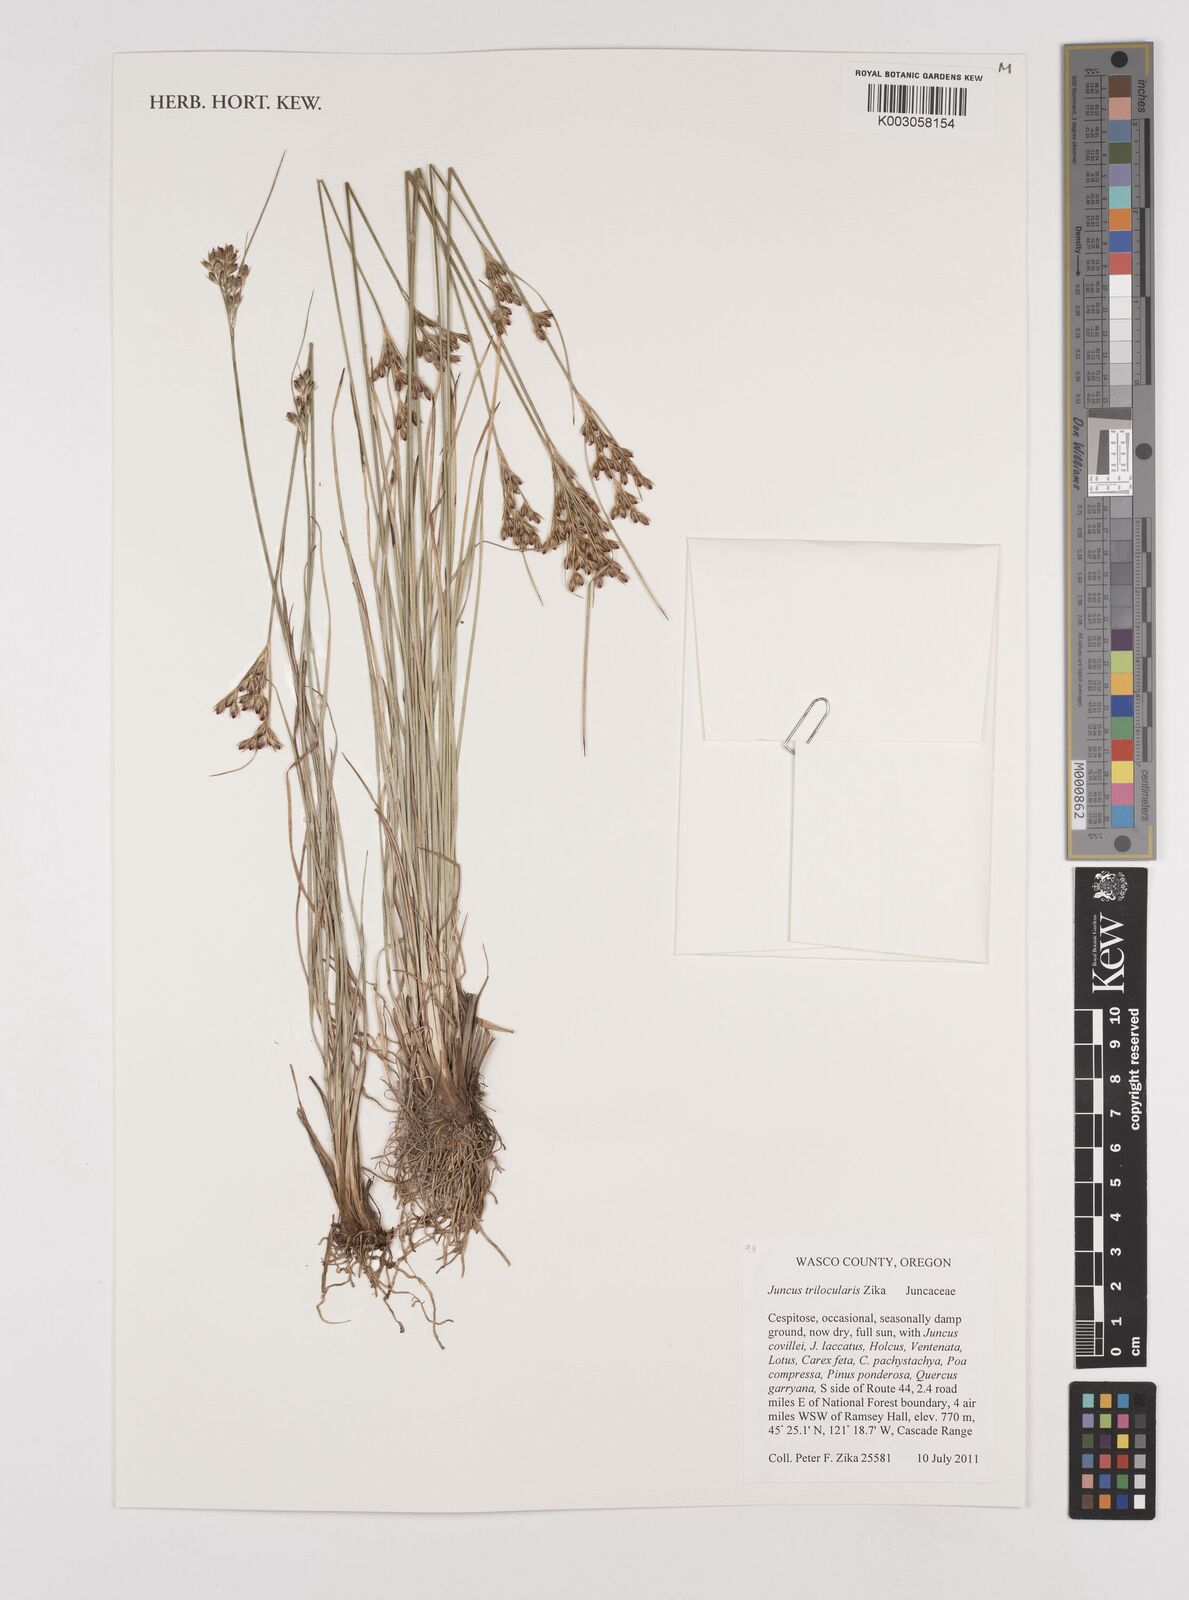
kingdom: Plantae
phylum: Tracheophyta
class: Liliopsida
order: Poales
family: Juncaceae
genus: Juncus
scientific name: Juncus trilocularis
